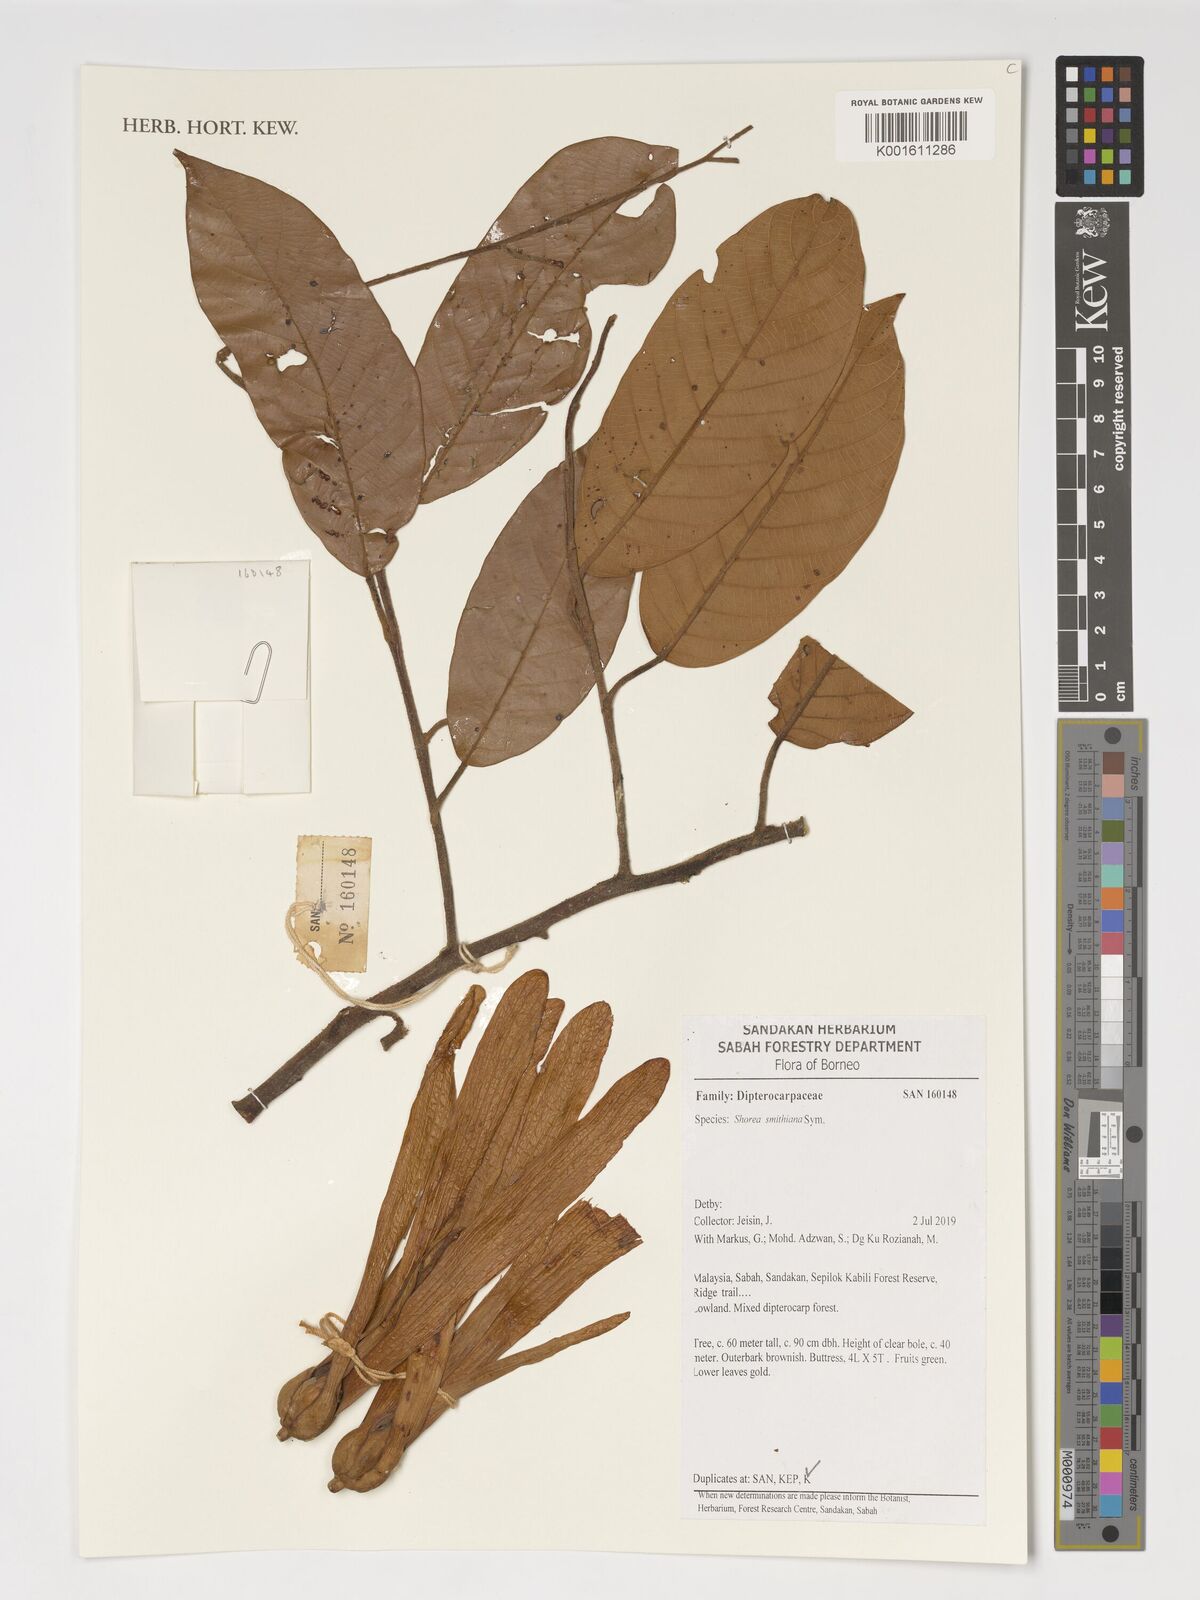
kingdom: Plantae
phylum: Tracheophyta
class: Magnoliopsida
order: Malvales
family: Dipterocarpaceae
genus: Shorea
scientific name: Shorea smithiana
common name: Light red meranti
